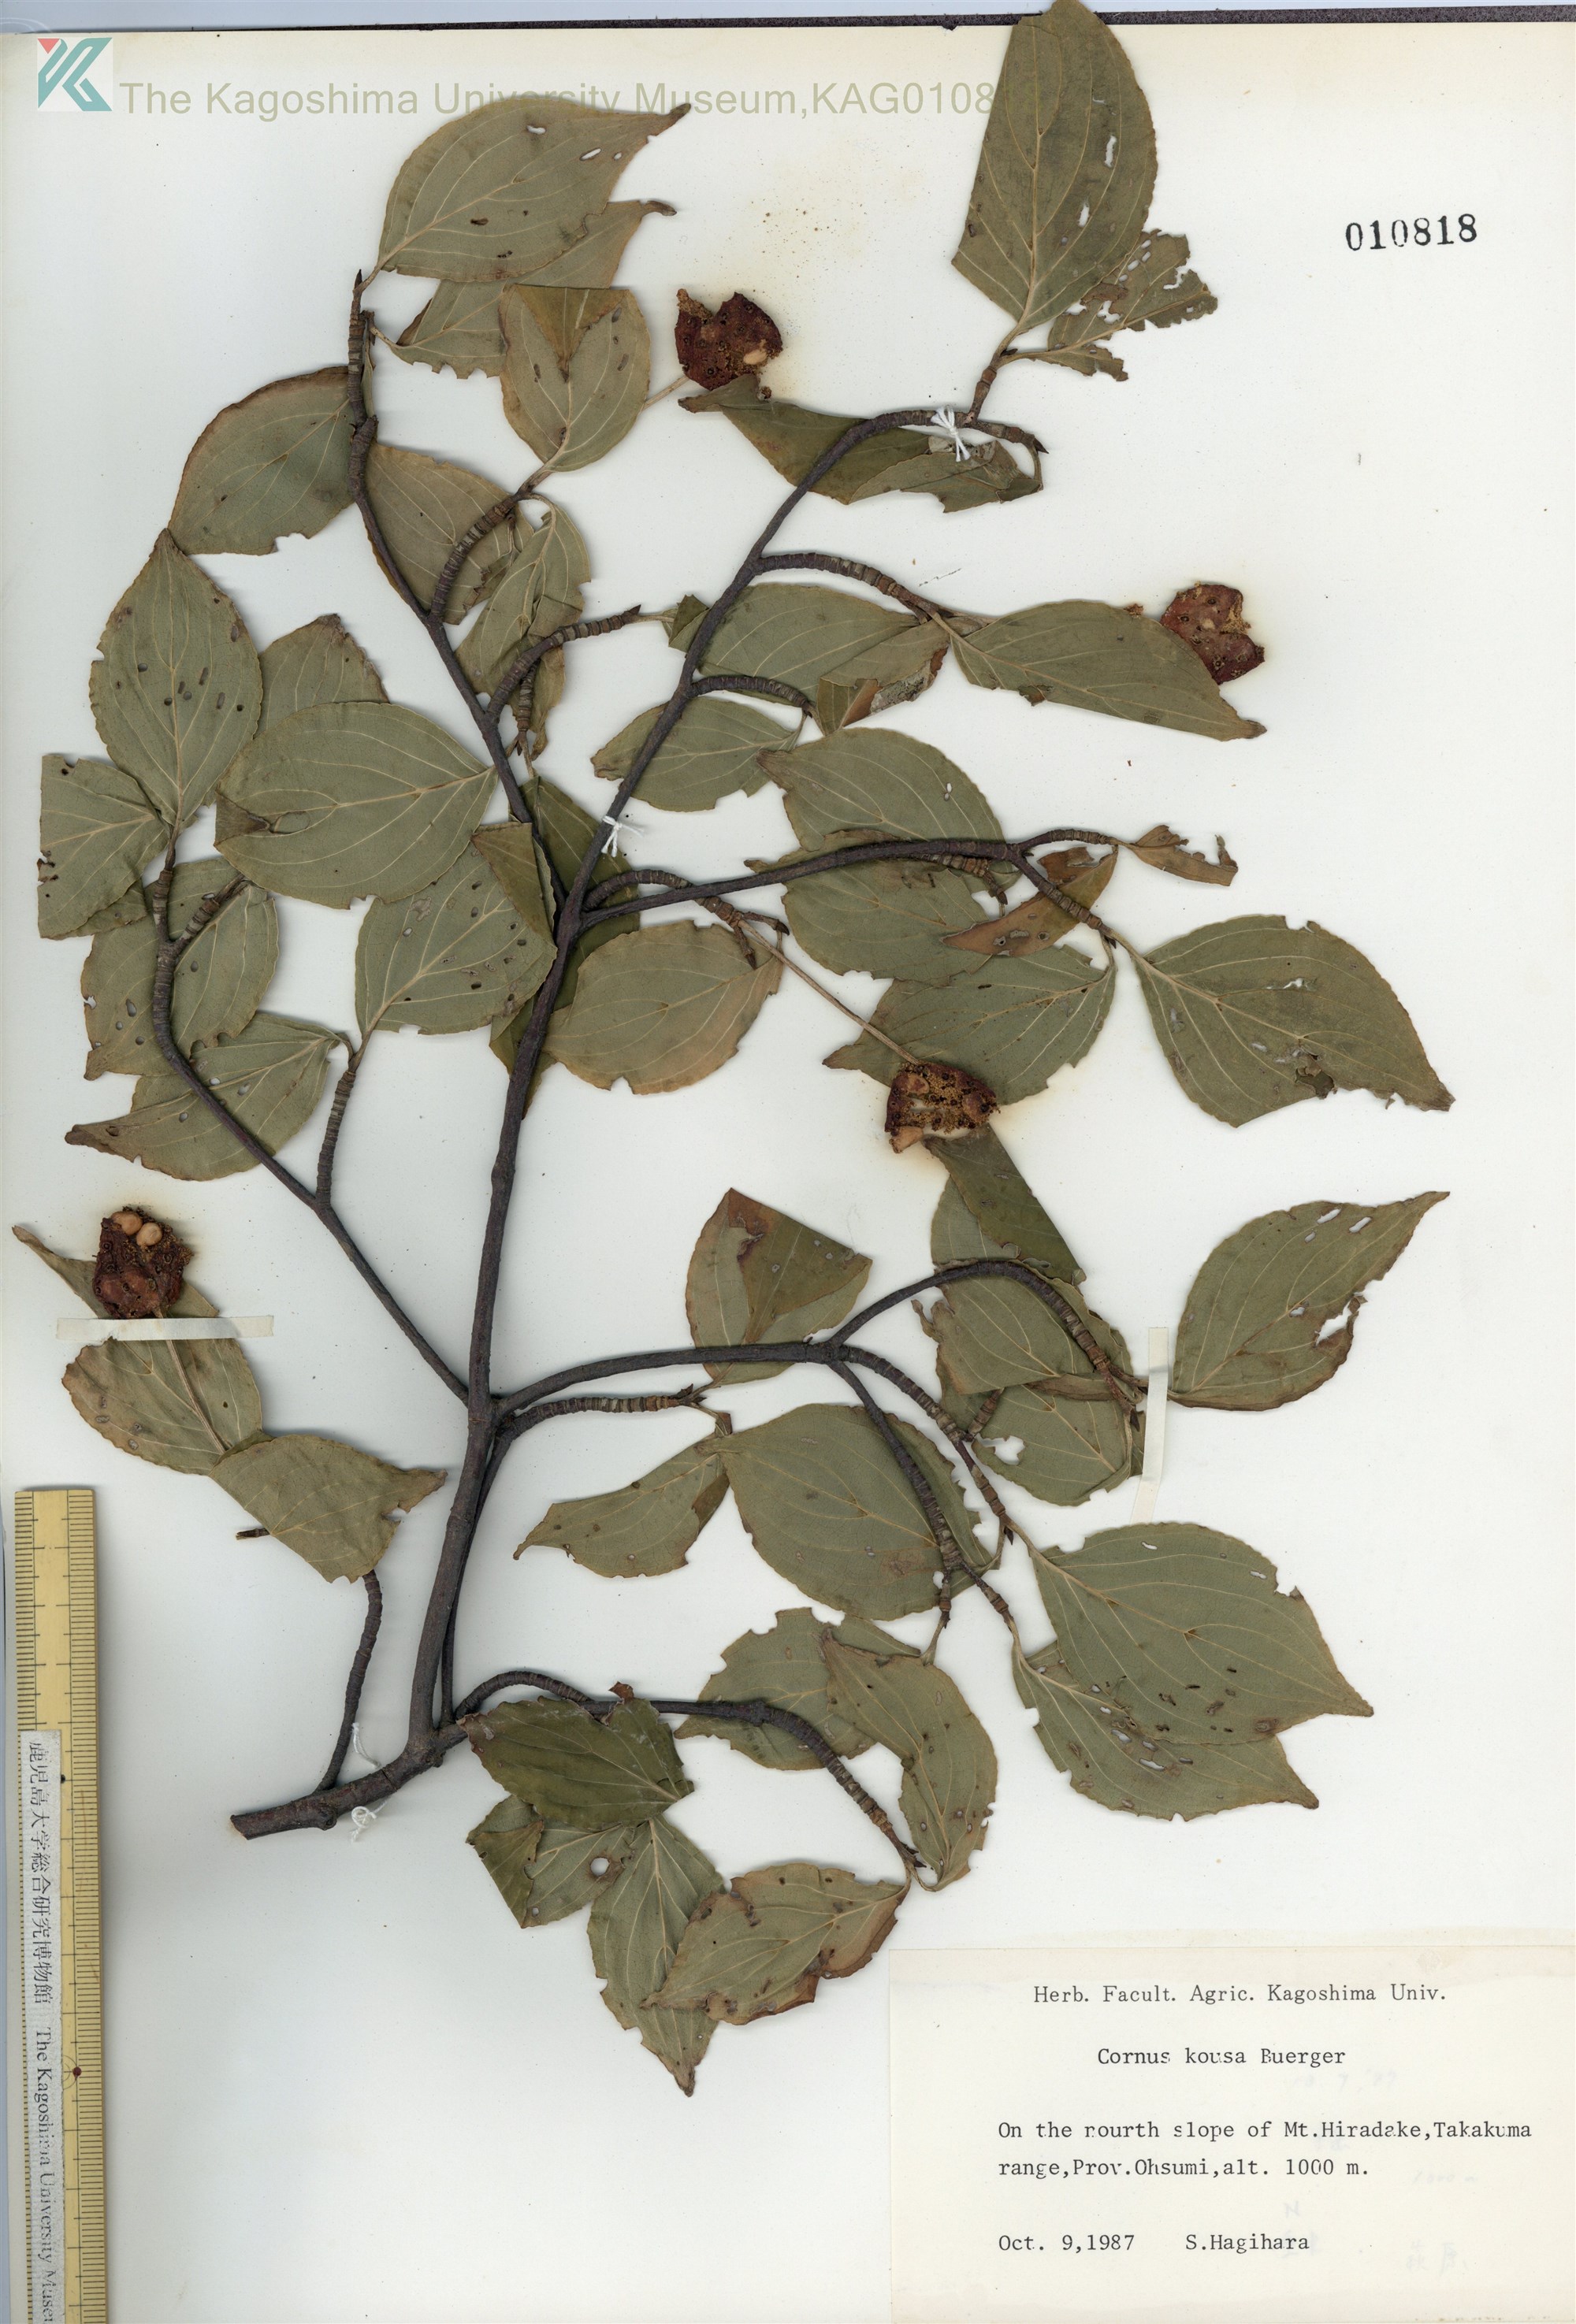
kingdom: Plantae
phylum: Tracheophyta
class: Magnoliopsida
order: Cornales
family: Cornaceae
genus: Cornus
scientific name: Cornus kousa
